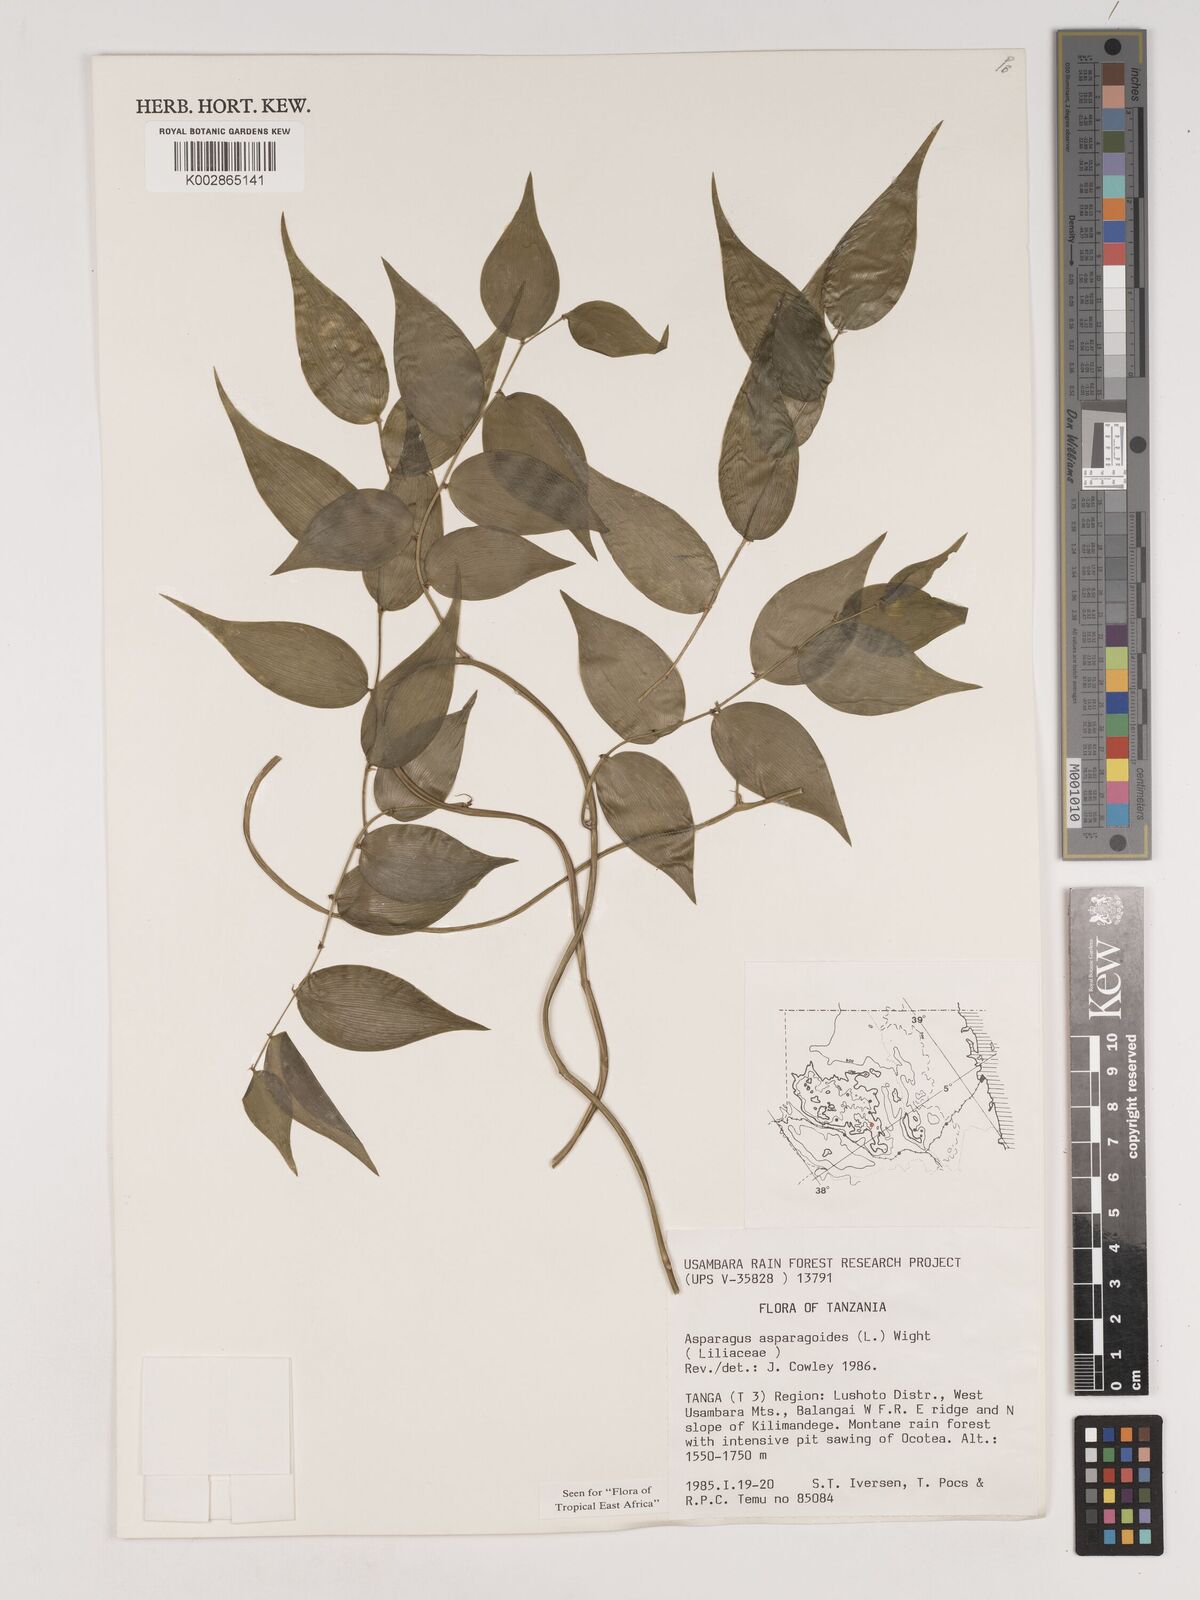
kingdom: Plantae
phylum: Tracheophyta
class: Liliopsida
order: Asparagales
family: Asparagaceae
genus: Asparagus
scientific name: Asparagus asparagoides
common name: African asparagus fern
